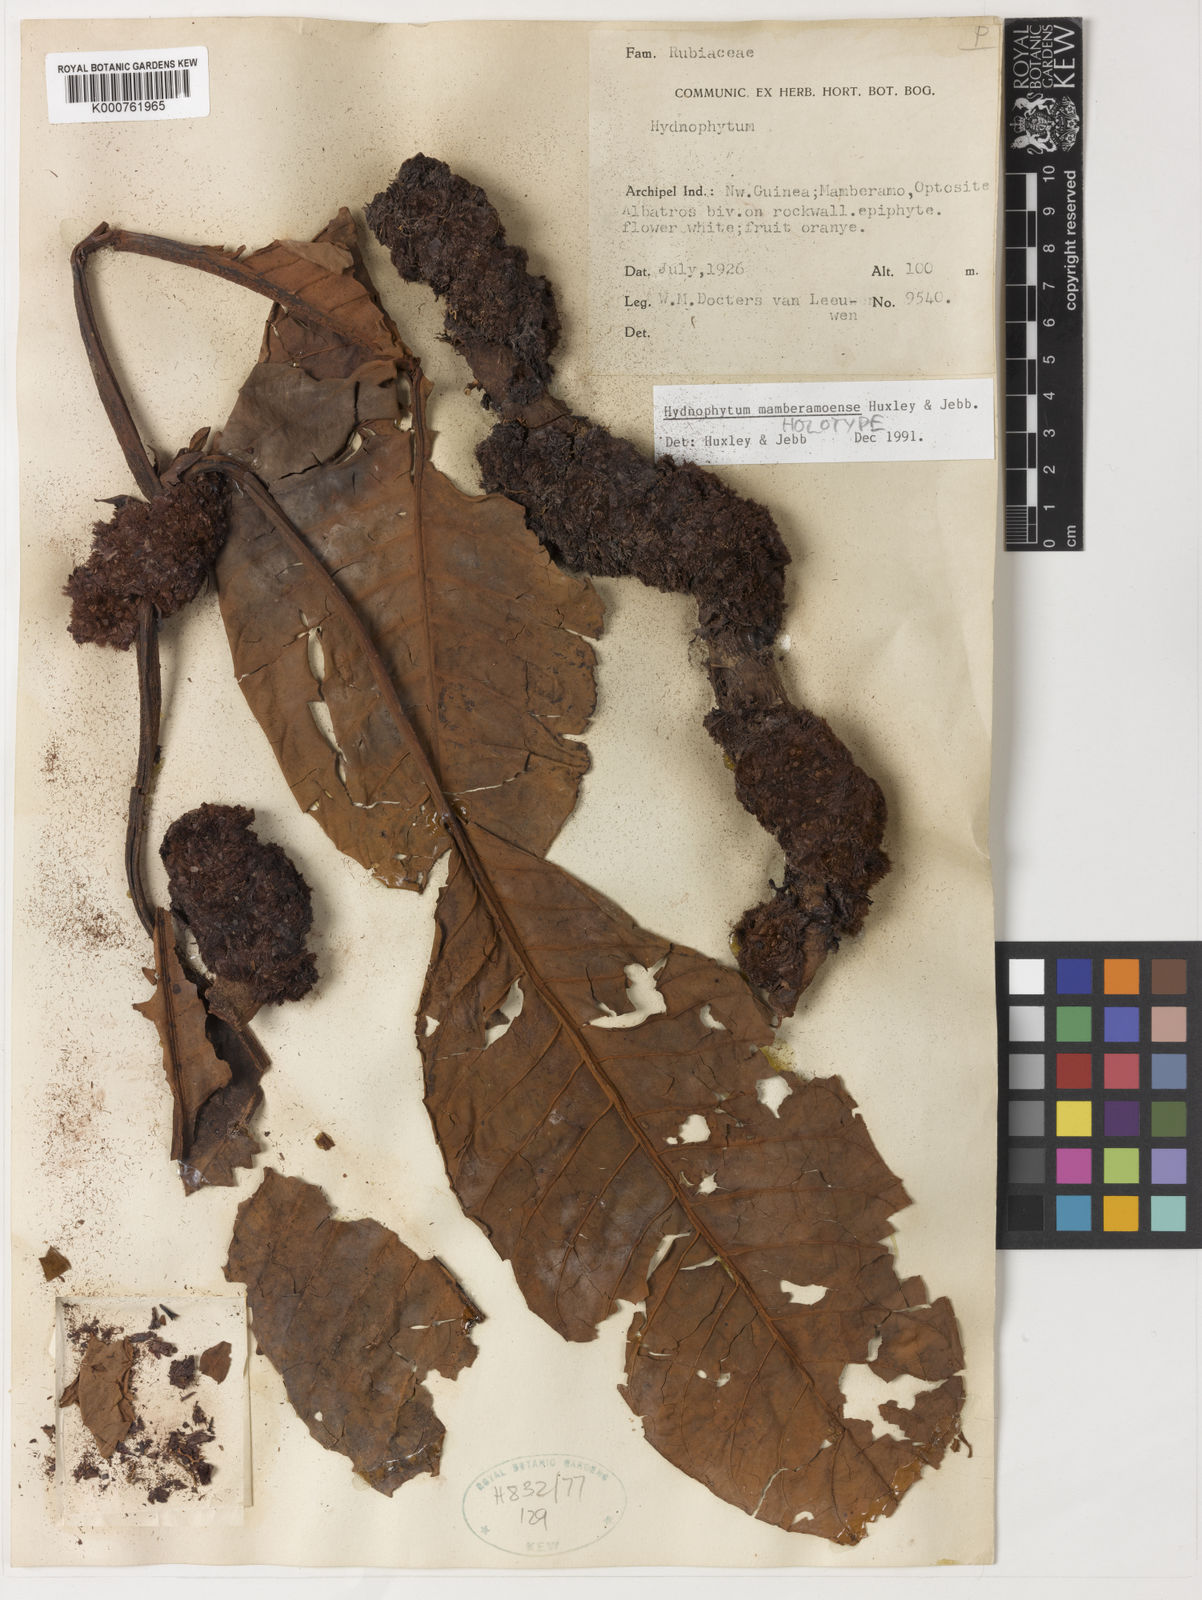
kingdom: Plantae
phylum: Tracheophyta
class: Magnoliopsida
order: Gentianales
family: Rubiaceae
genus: Hydnophytum
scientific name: Hydnophytum
